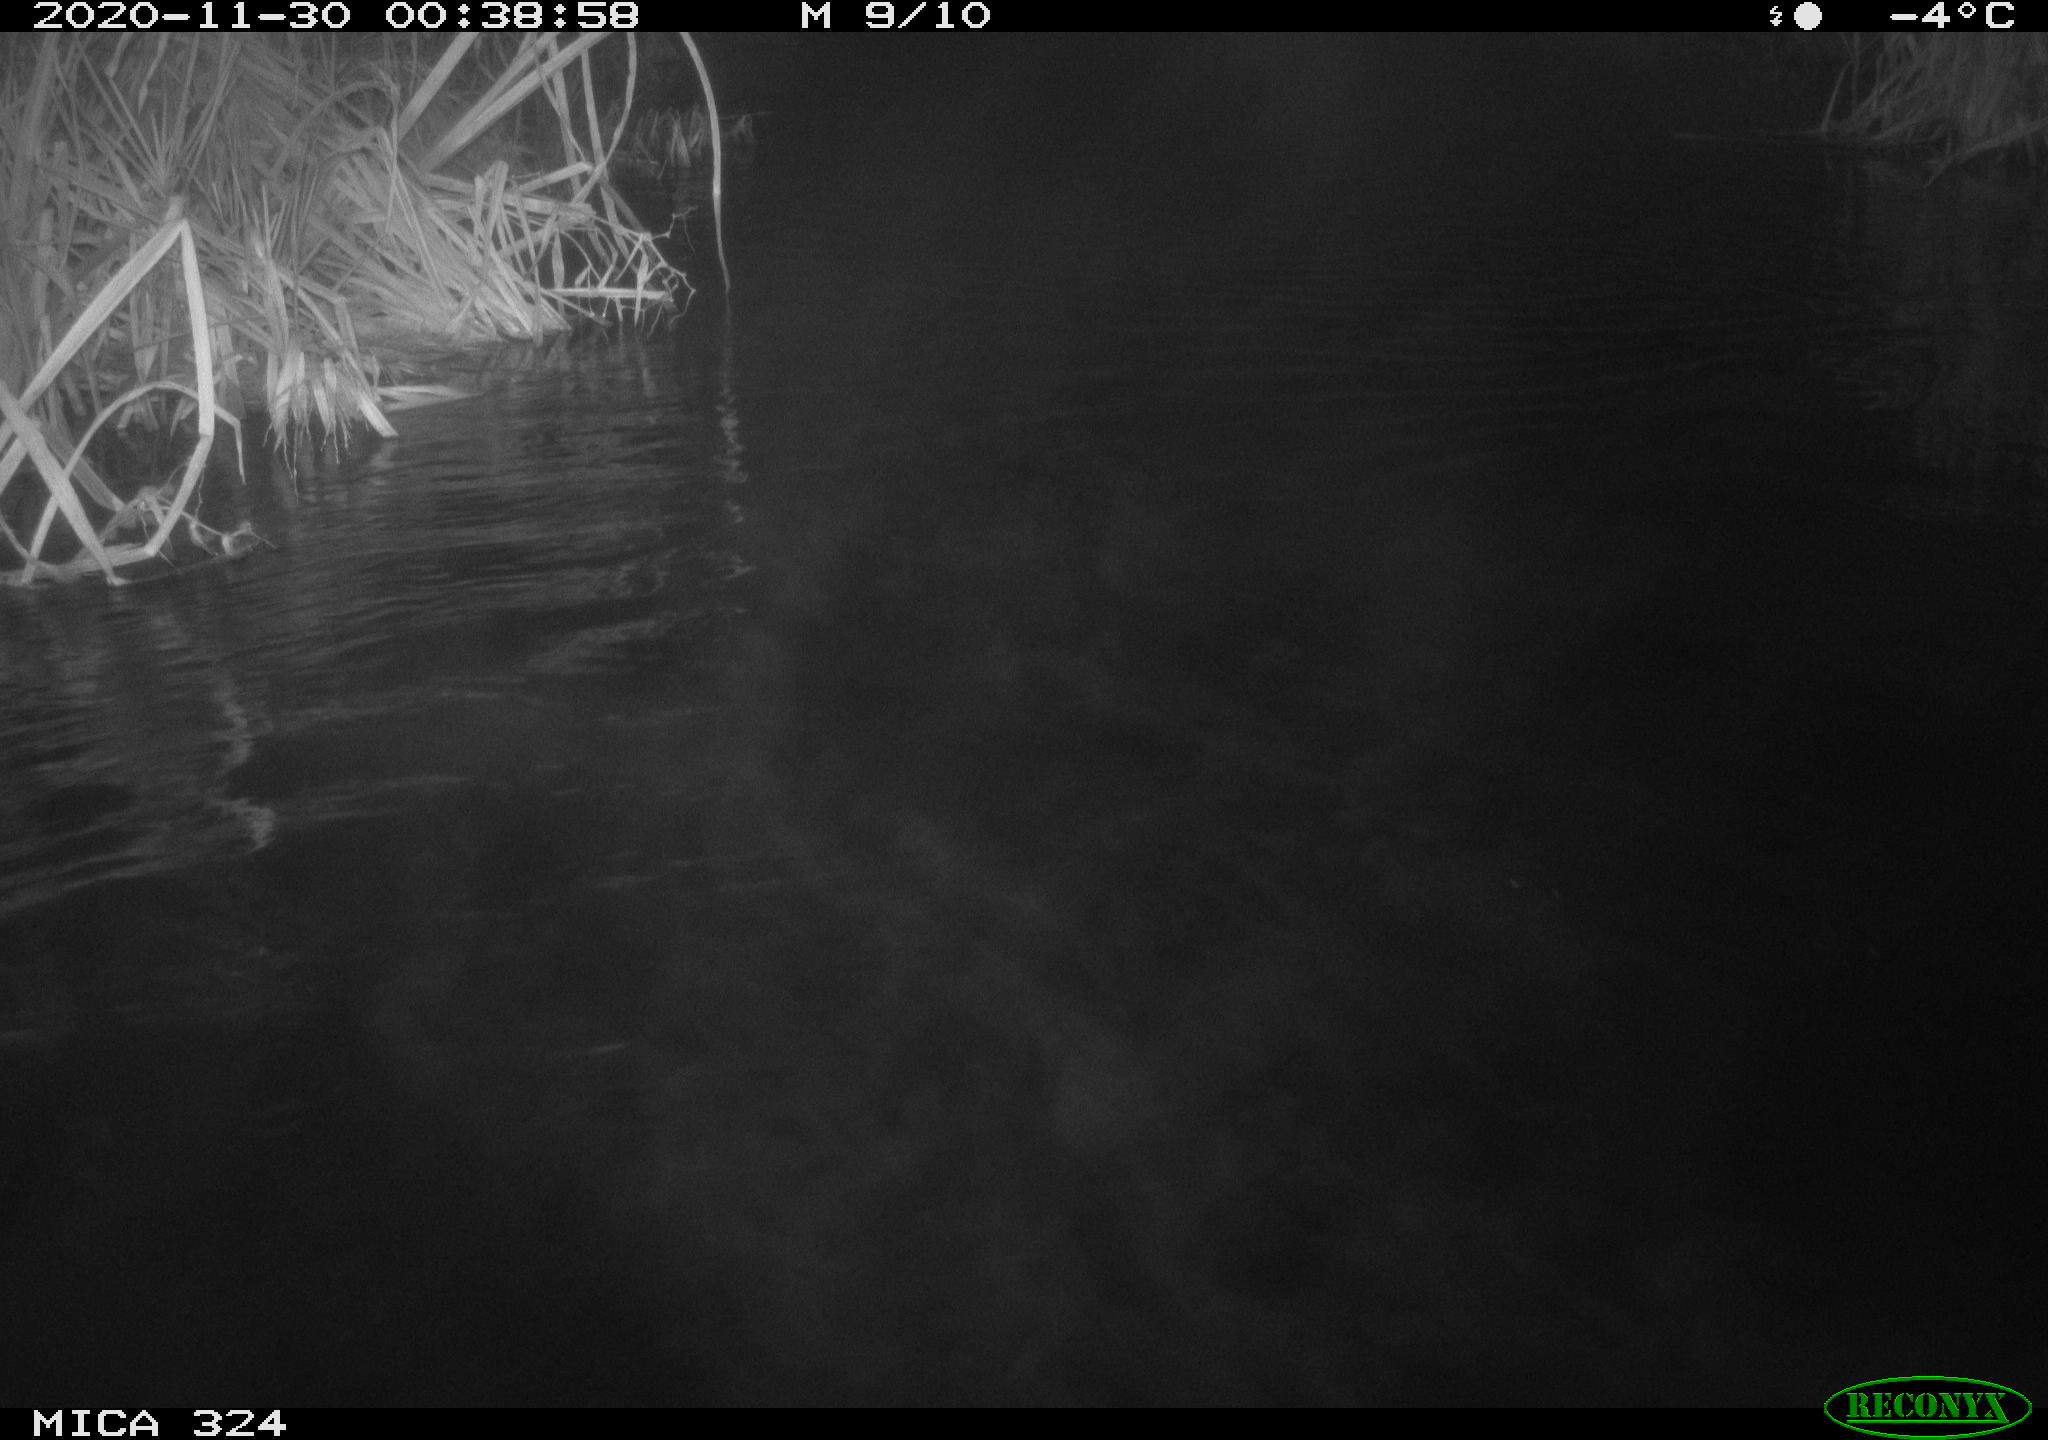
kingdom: Animalia
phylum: Chordata
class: Mammalia
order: Rodentia
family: Cricetidae
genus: Ondatra
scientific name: Ondatra zibethicus
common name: Muskrat
